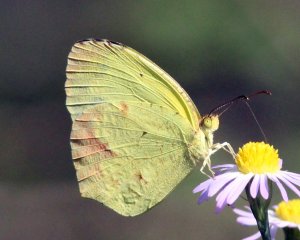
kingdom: Animalia
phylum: Arthropoda
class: Insecta
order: Lepidoptera
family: Pieridae
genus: Eurema
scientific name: Eurema boisduvaliana
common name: Boisduval's Yellow
